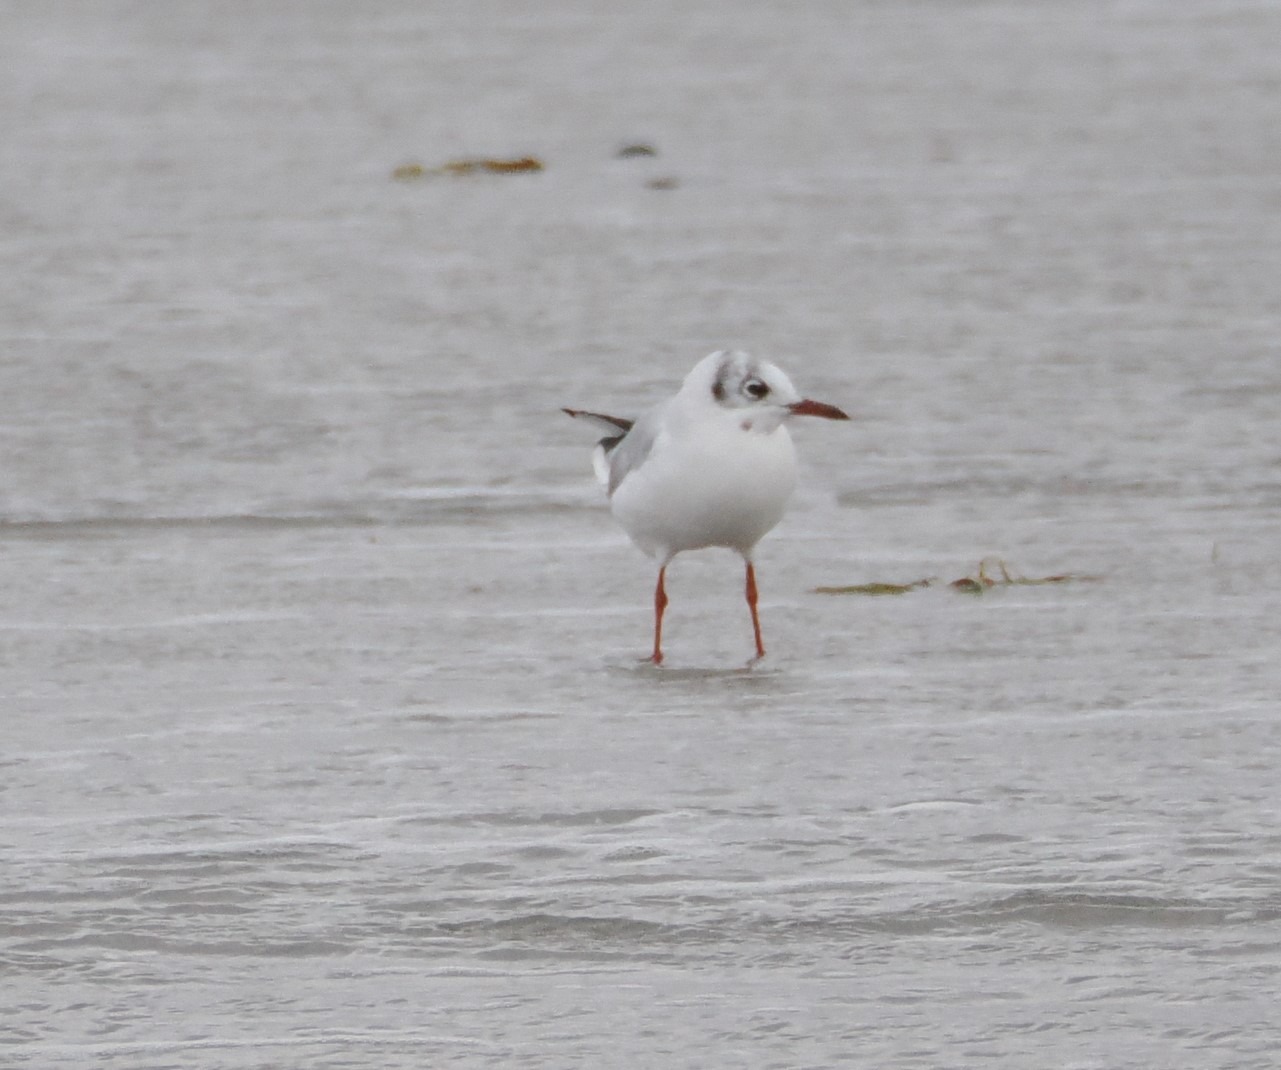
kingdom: Animalia
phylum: Chordata
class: Aves
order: Charadriiformes
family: Laridae
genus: Chroicocephalus
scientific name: Chroicocephalus ridibundus
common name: Hættemåge
